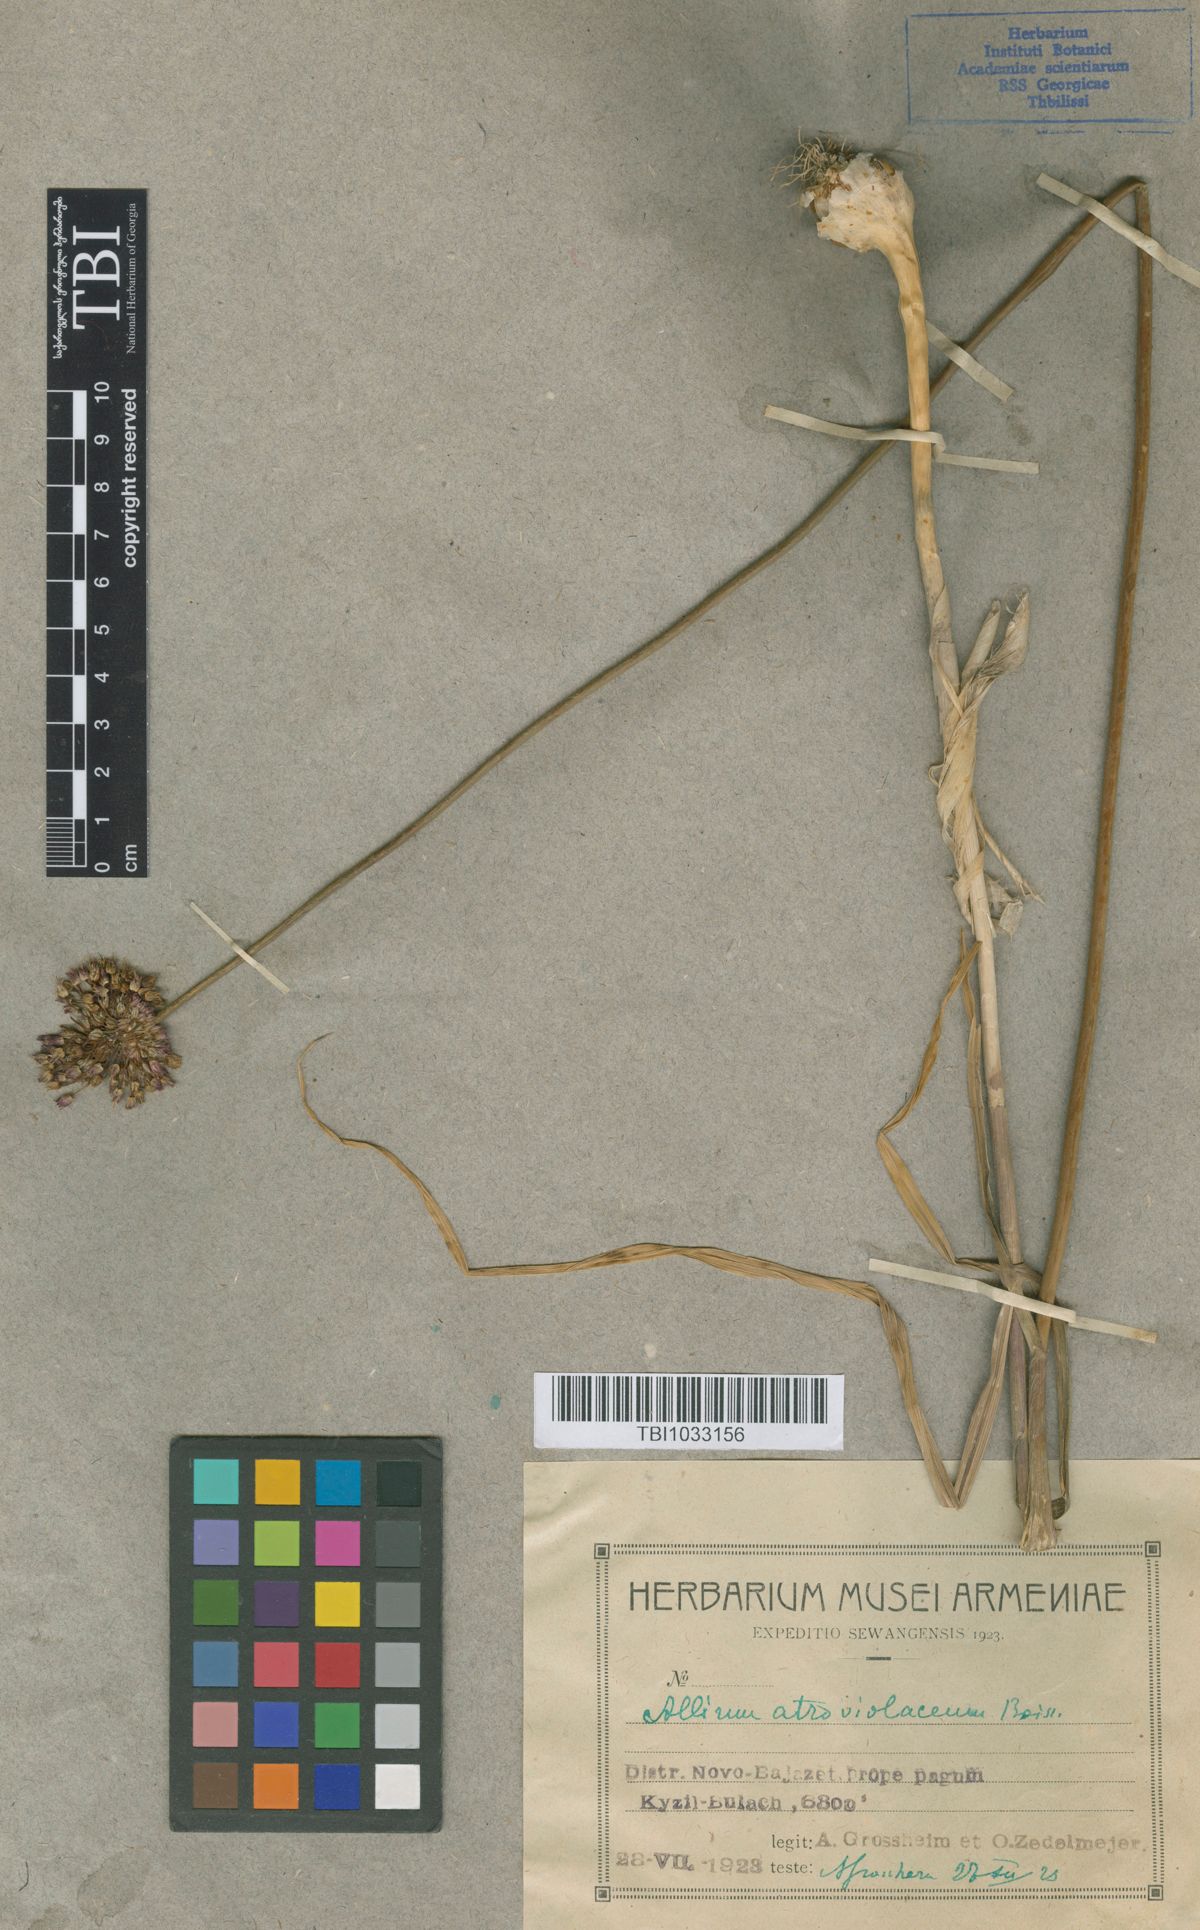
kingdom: Plantae
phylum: Tracheophyta
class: Liliopsida
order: Asparagales
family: Amaryllidaceae
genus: Allium
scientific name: Allium atroviolaceum
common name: Broadleaf wild leek
